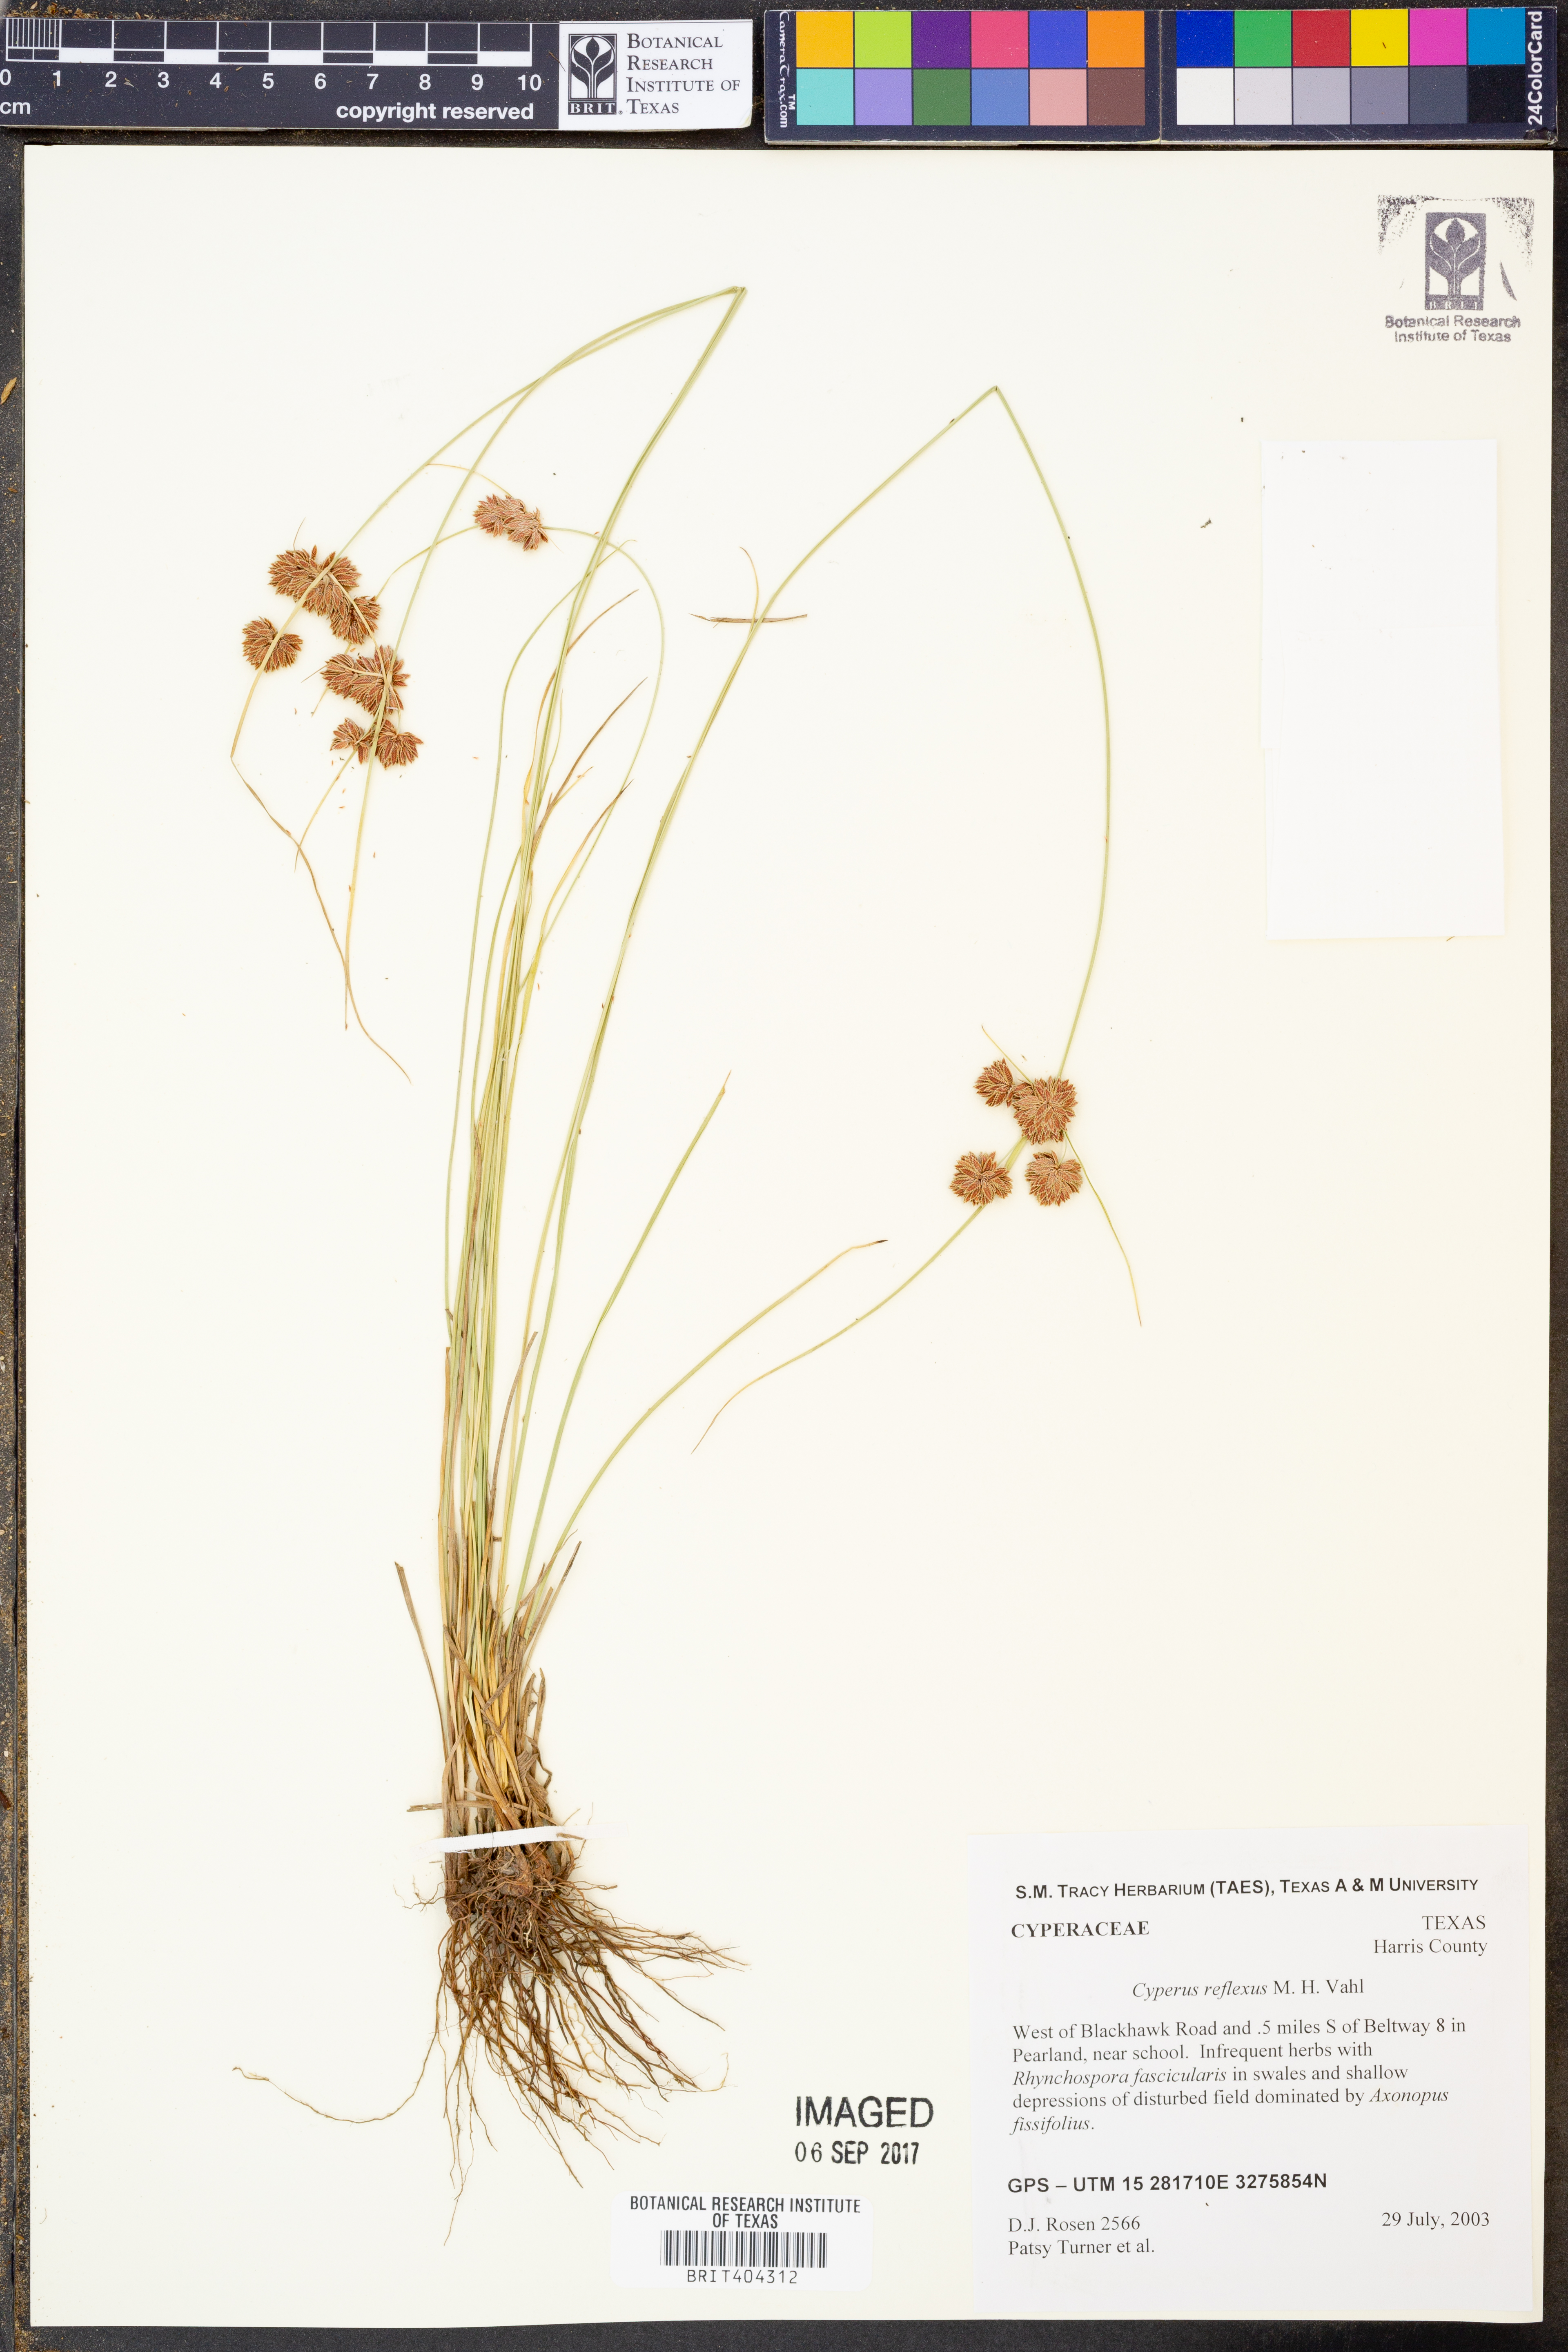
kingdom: Plantae
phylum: Tracheophyta
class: Liliopsida
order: Poales
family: Cyperaceae
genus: Cyperus
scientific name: Cyperus reflexus
